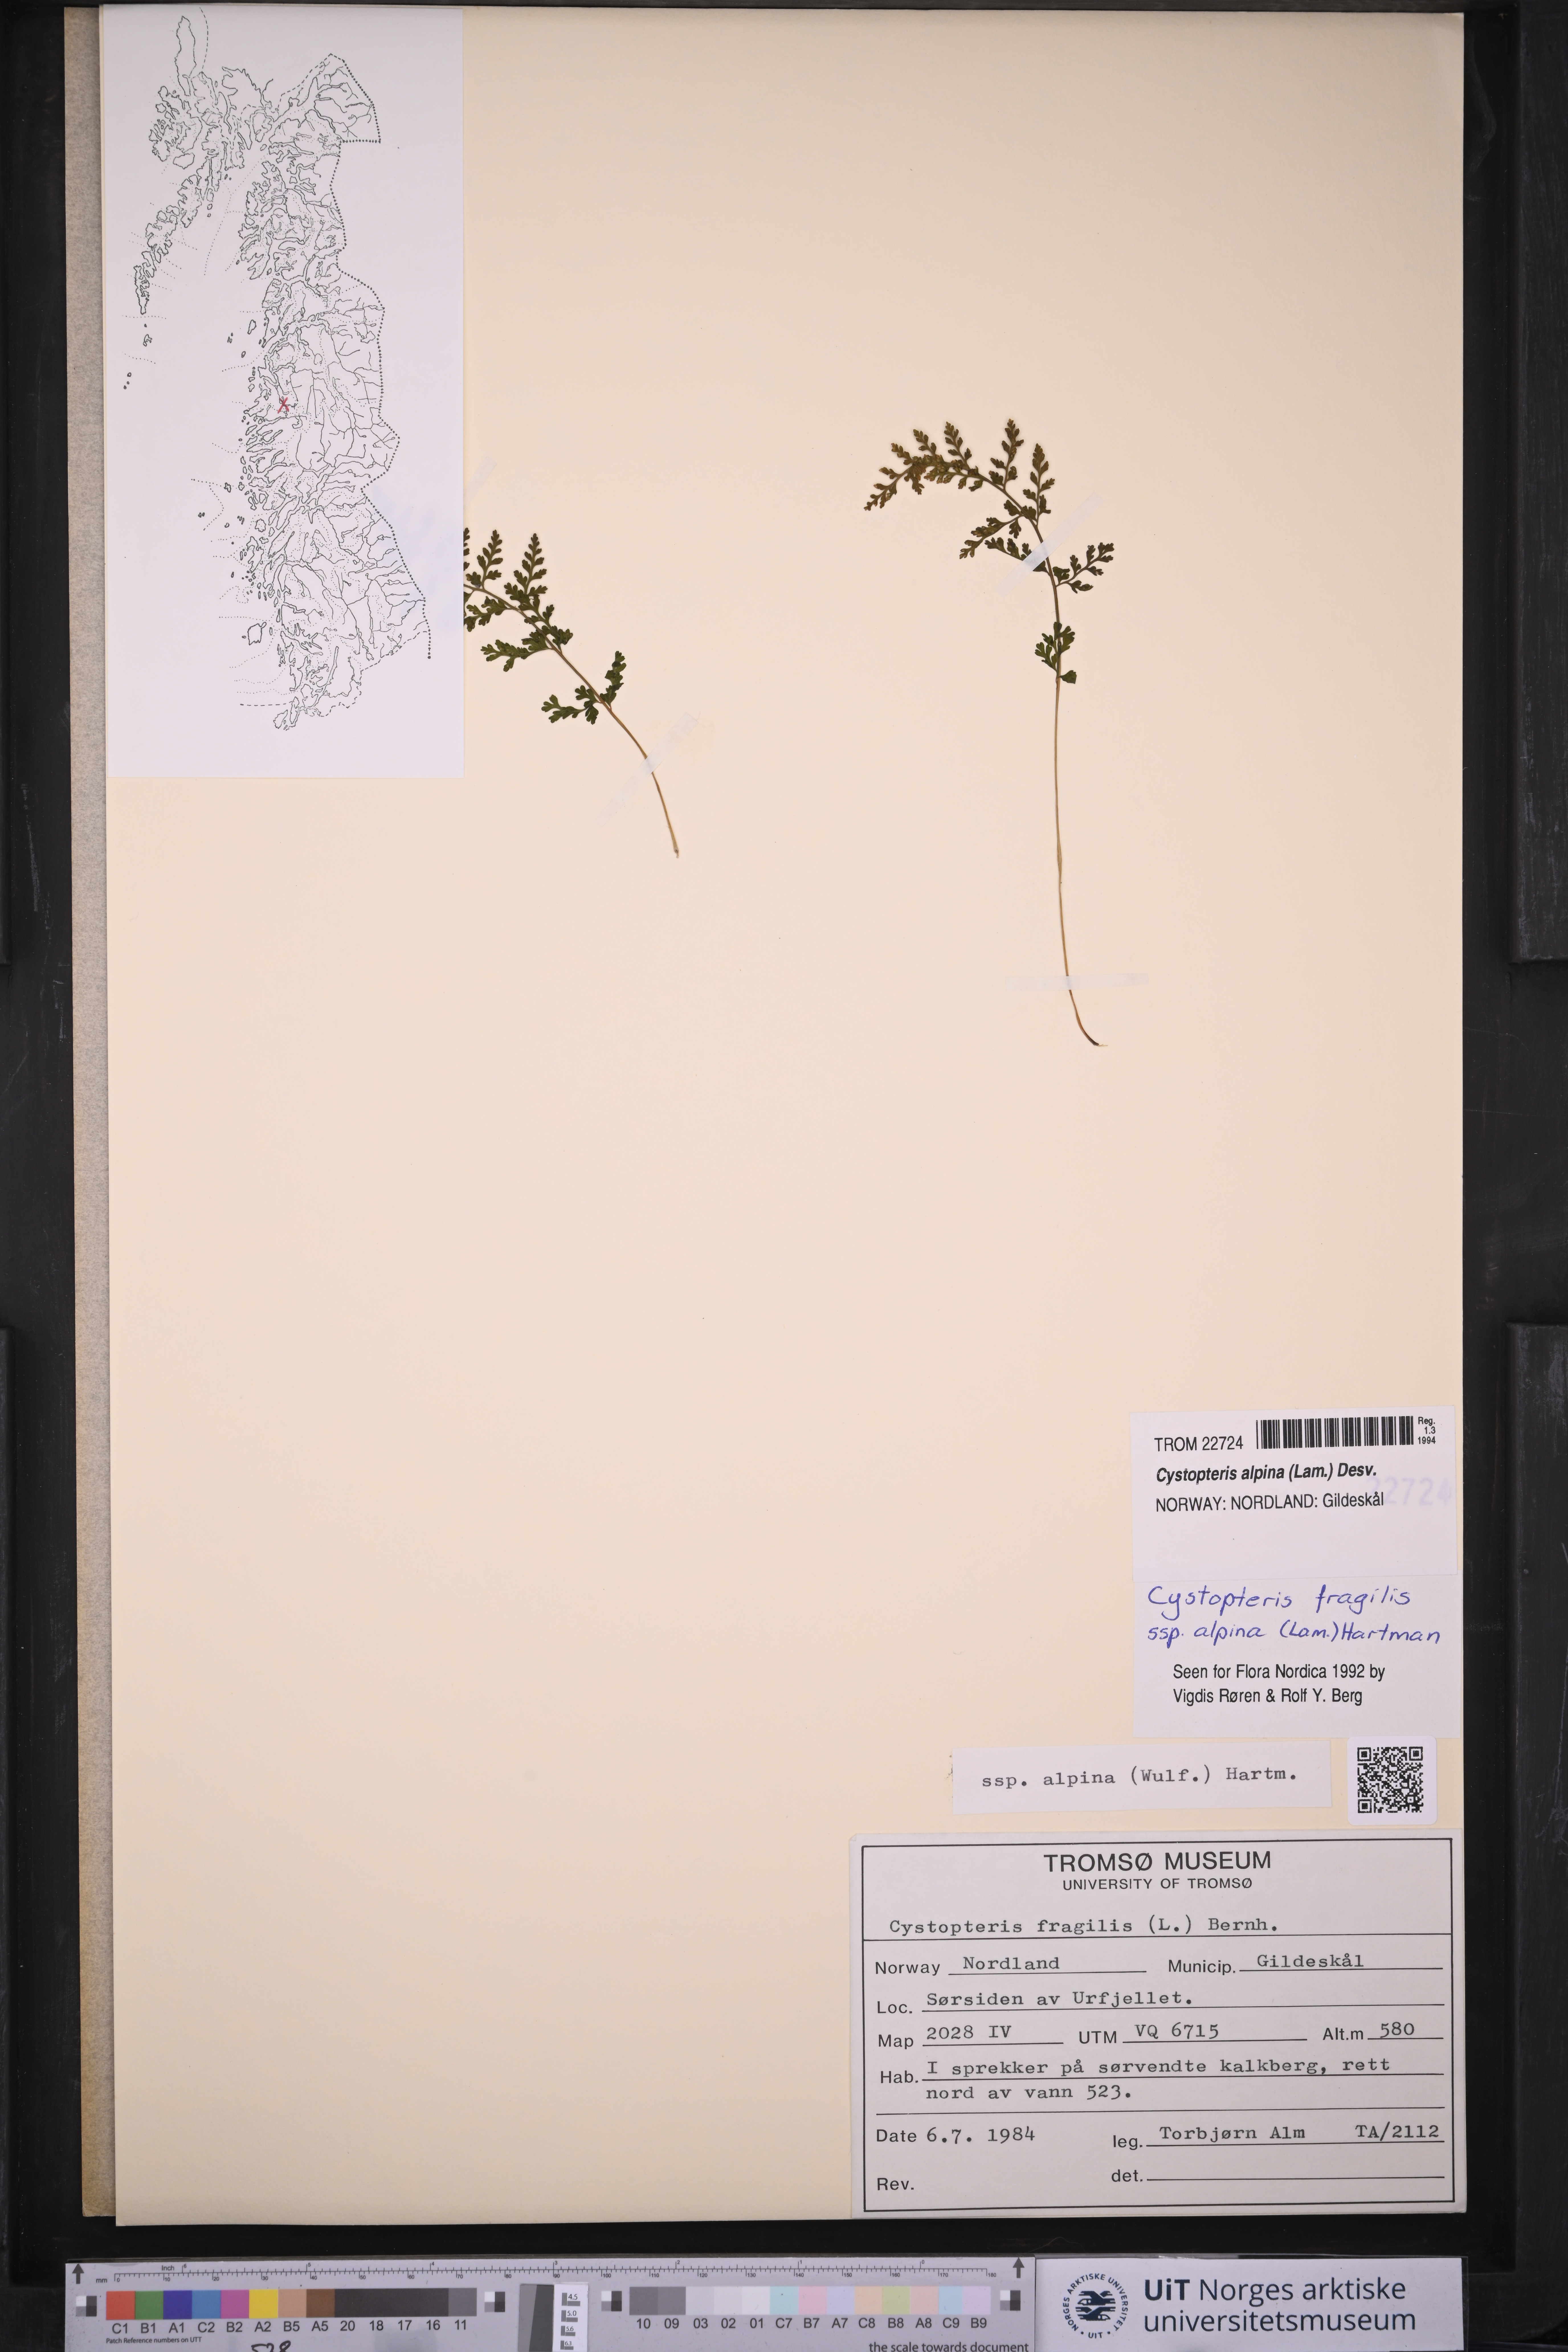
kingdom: Plantae
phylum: Tracheophyta
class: Polypodiopsida
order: Polypodiales
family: Cystopteridaceae
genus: Cystopteris
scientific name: Cystopteris alpina
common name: Alpine bladder-fern
